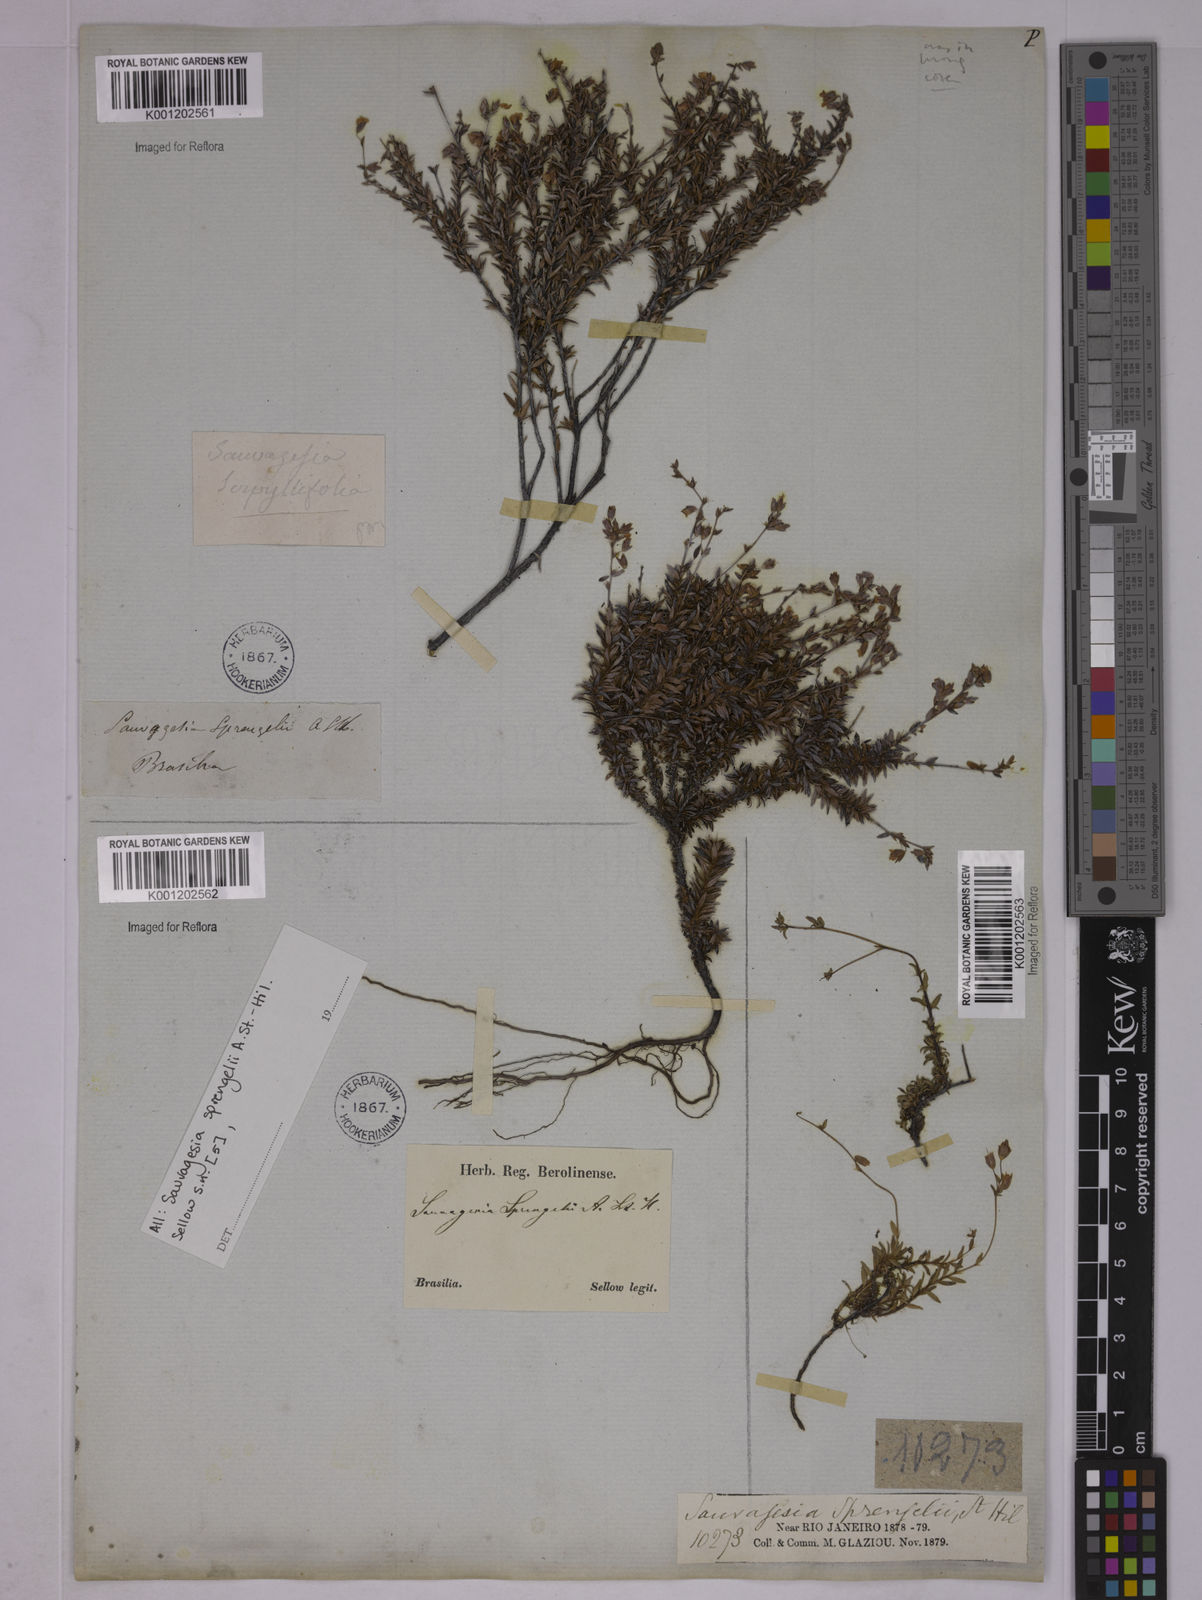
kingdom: Plantae
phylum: Tracheophyta
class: Magnoliopsida
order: Malpighiales
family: Ochnaceae
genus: Sauvagesia
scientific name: Sauvagesia sprengelii
